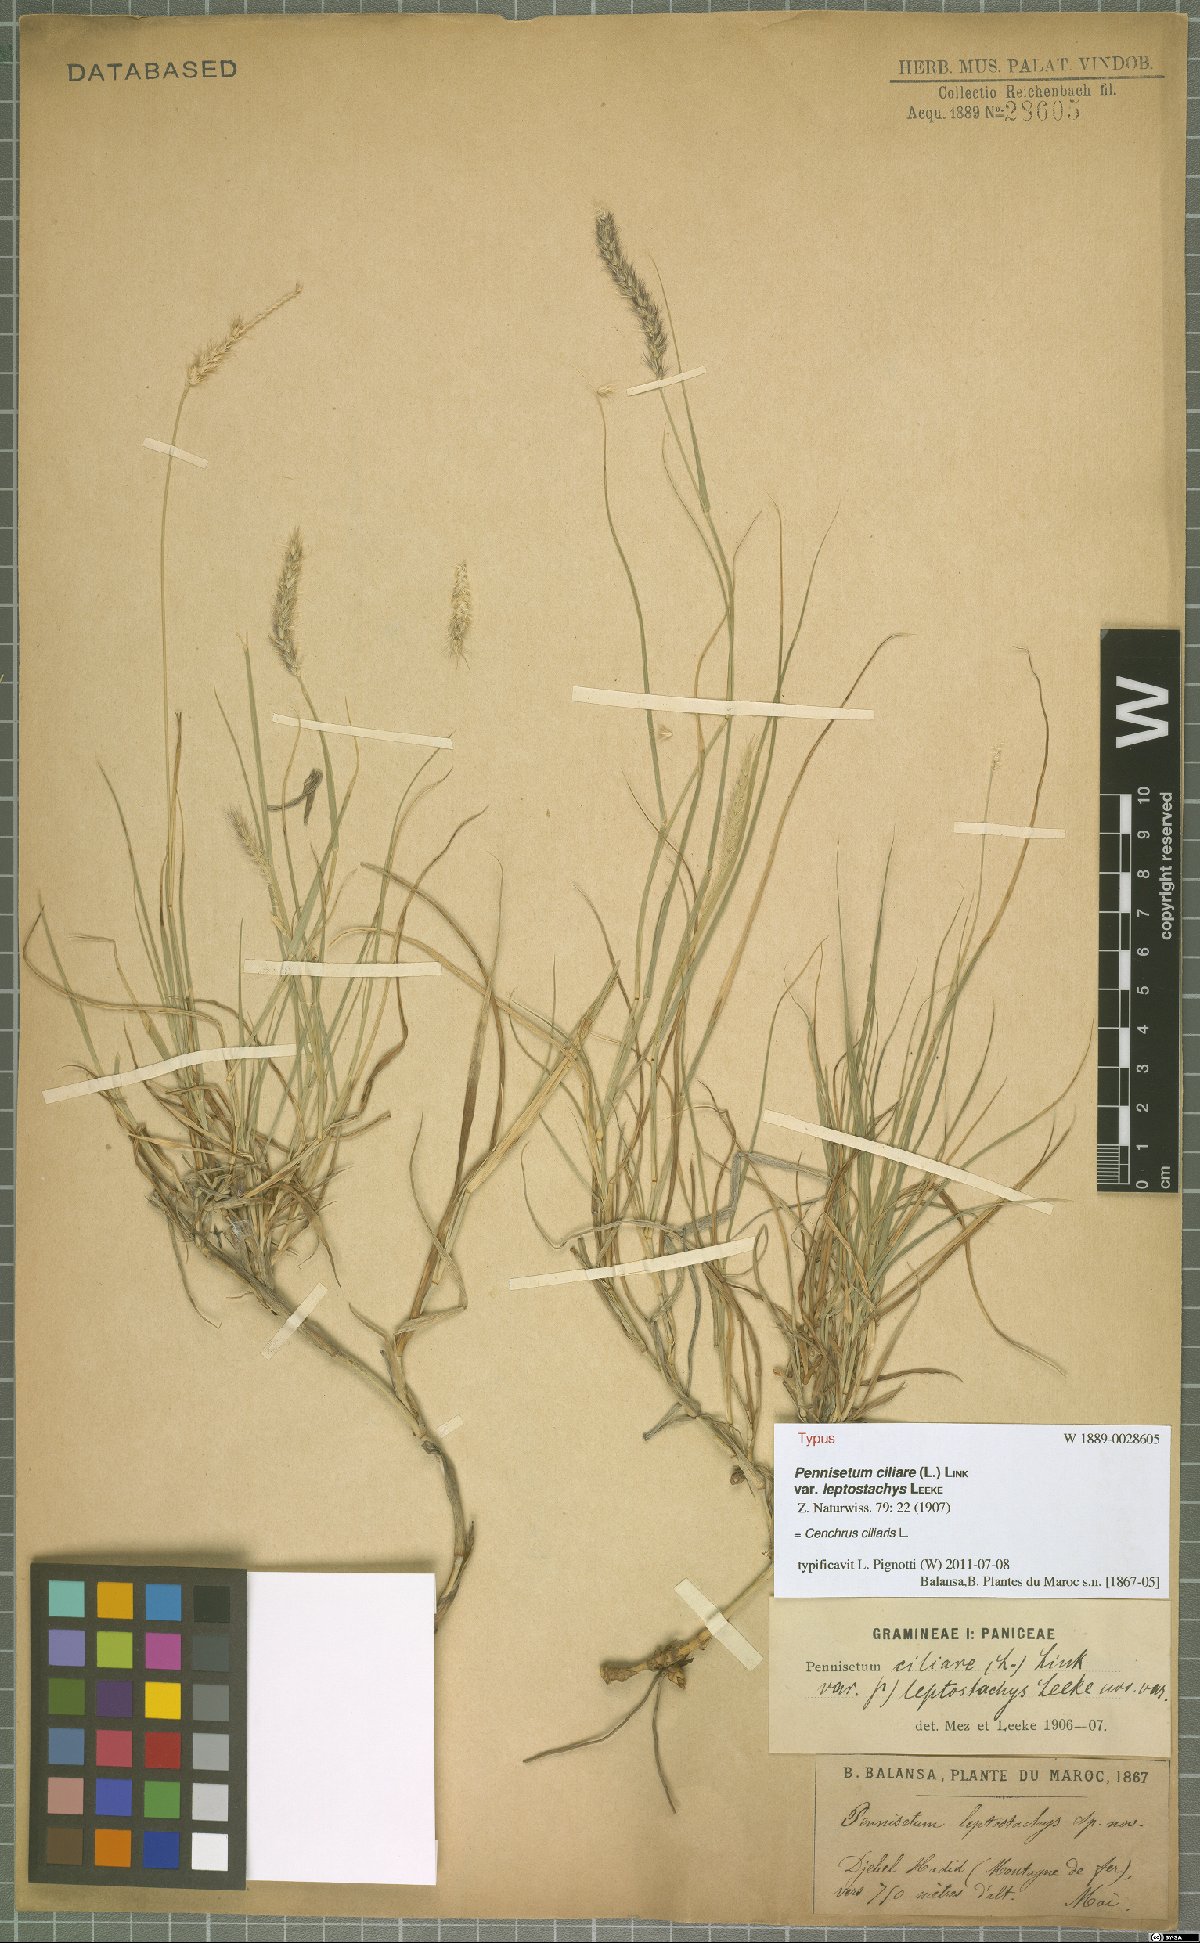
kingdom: Plantae
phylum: Tracheophyta
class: Liliopsida
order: Poales
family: Poaceae
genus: Cenchrus
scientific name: Cenchrus ciliaris
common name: Buffelgrass
